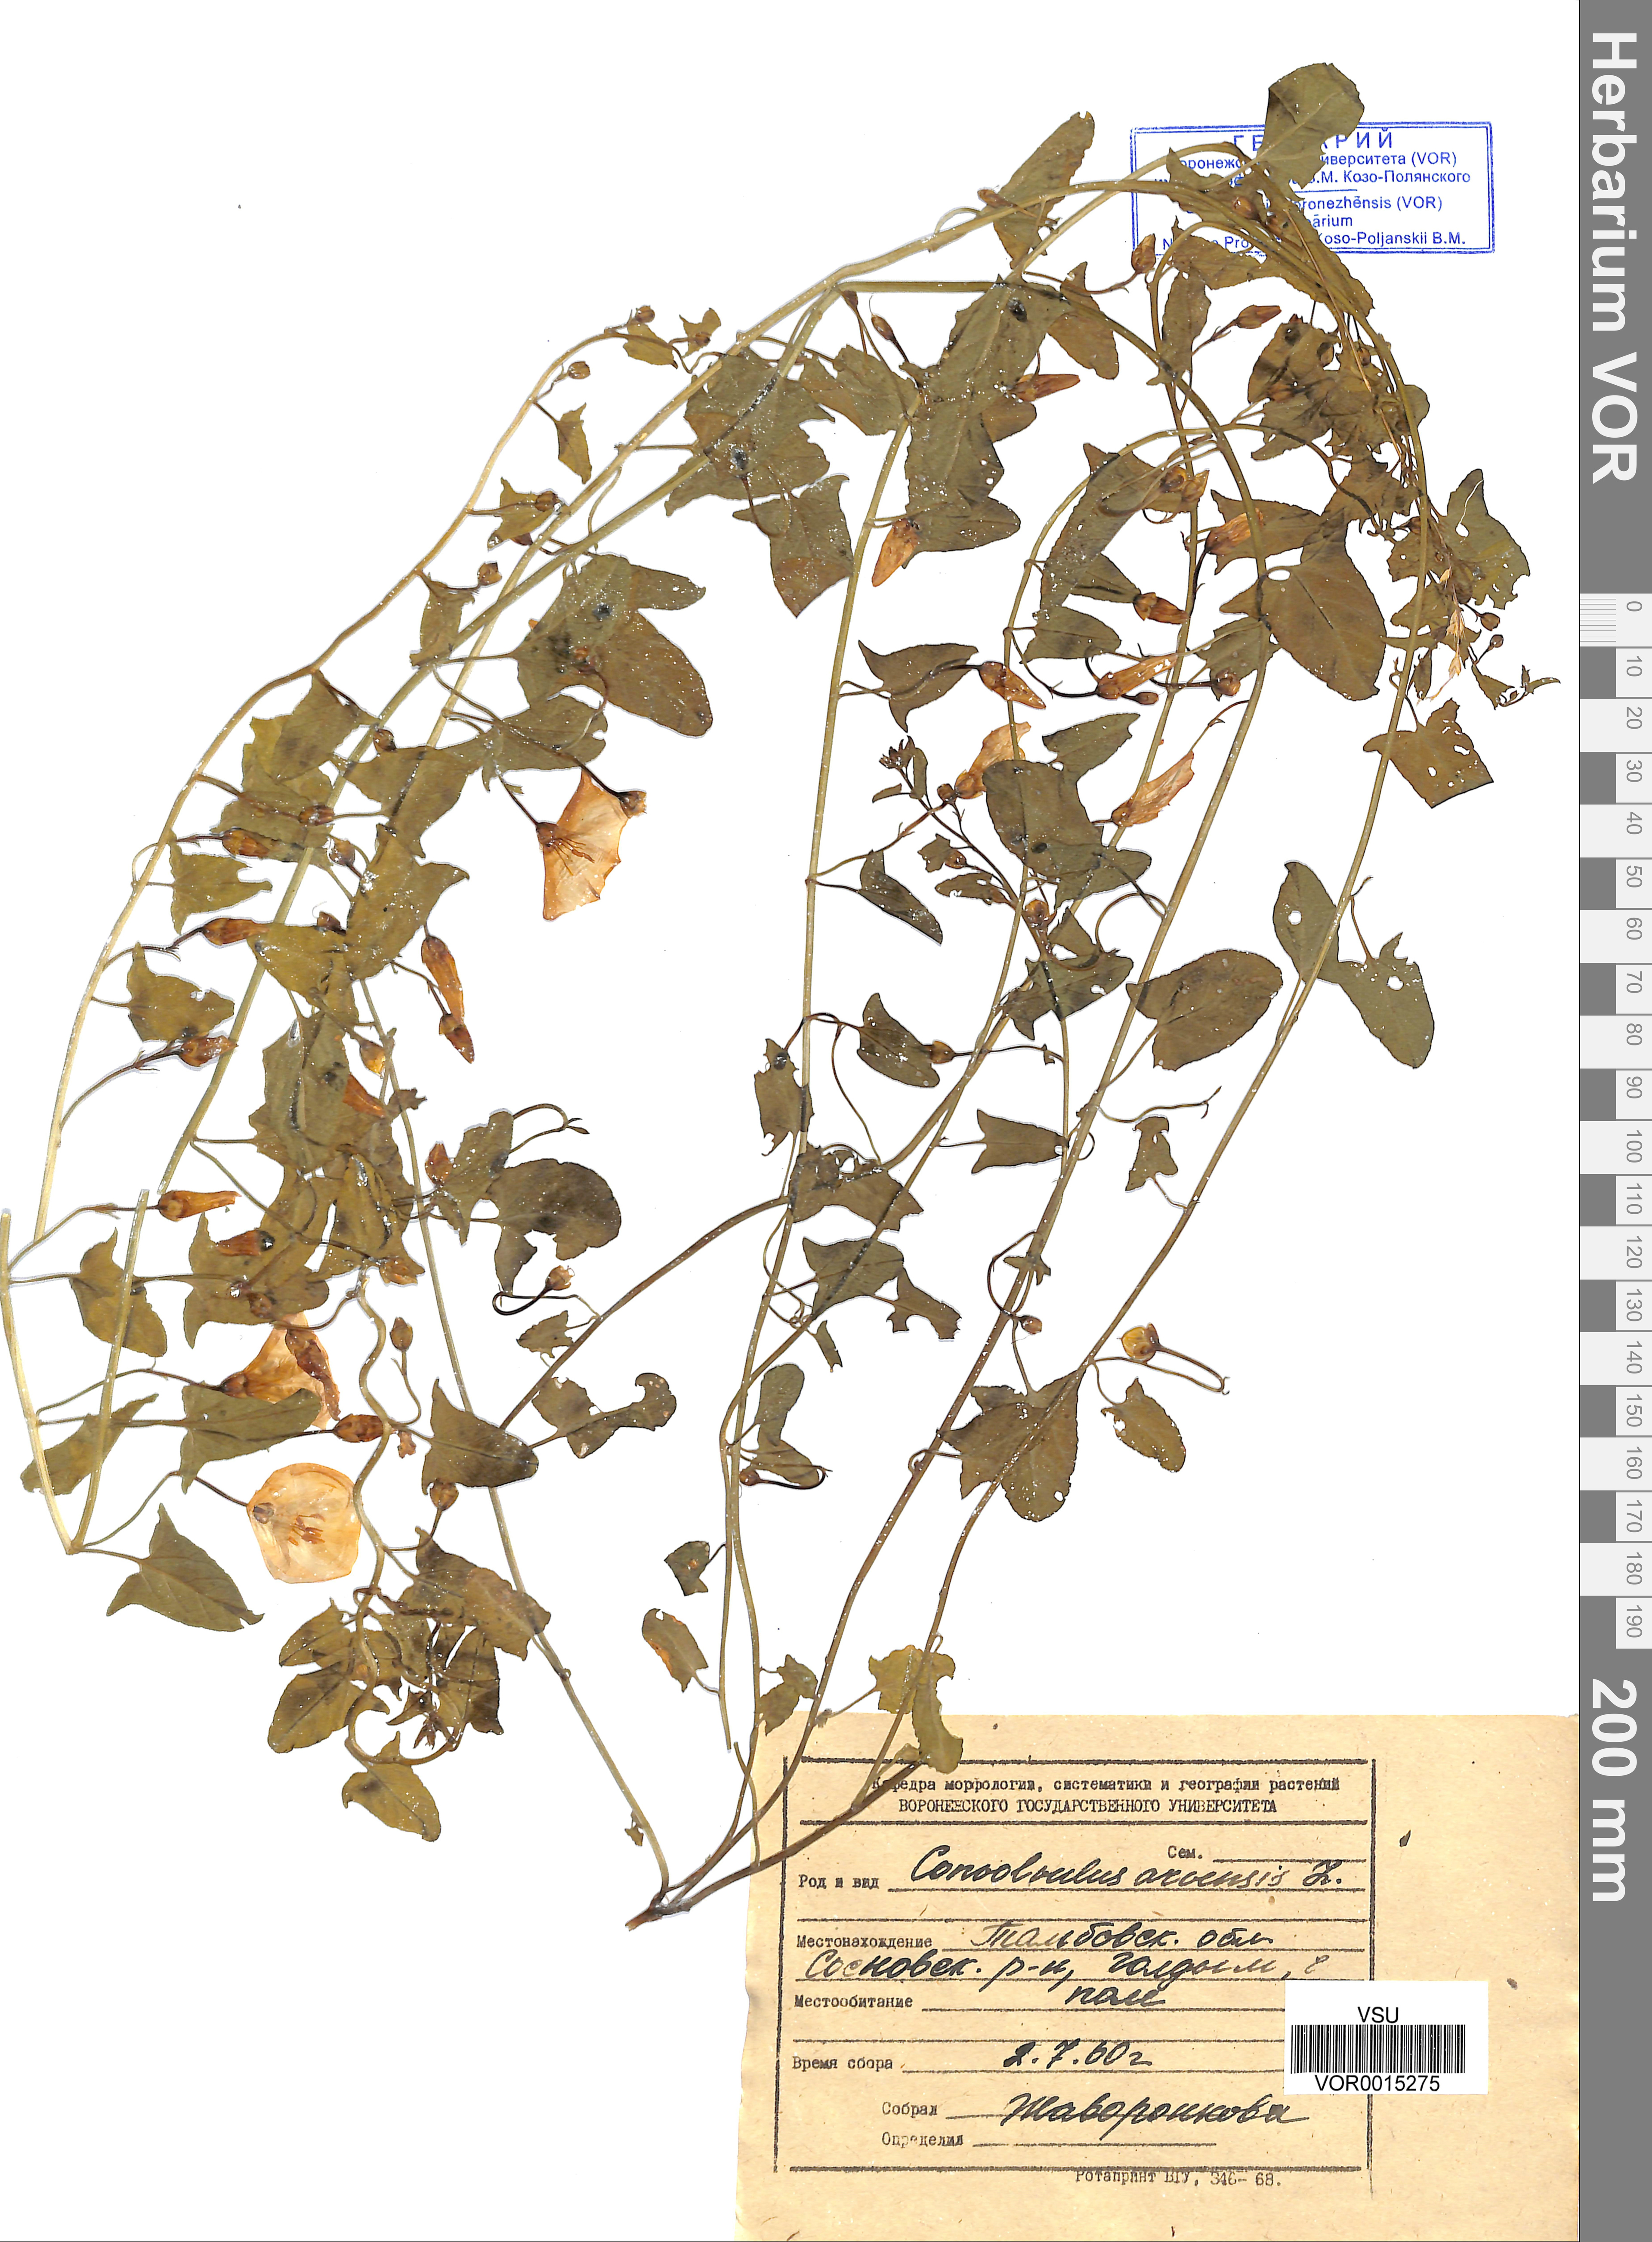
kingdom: Plantae
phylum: Tracheophyta
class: Magnoliopsida
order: Solanales
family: Convolvulaceae
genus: Convolvulus
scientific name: Convolvulus arvensis
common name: Field bindweed
